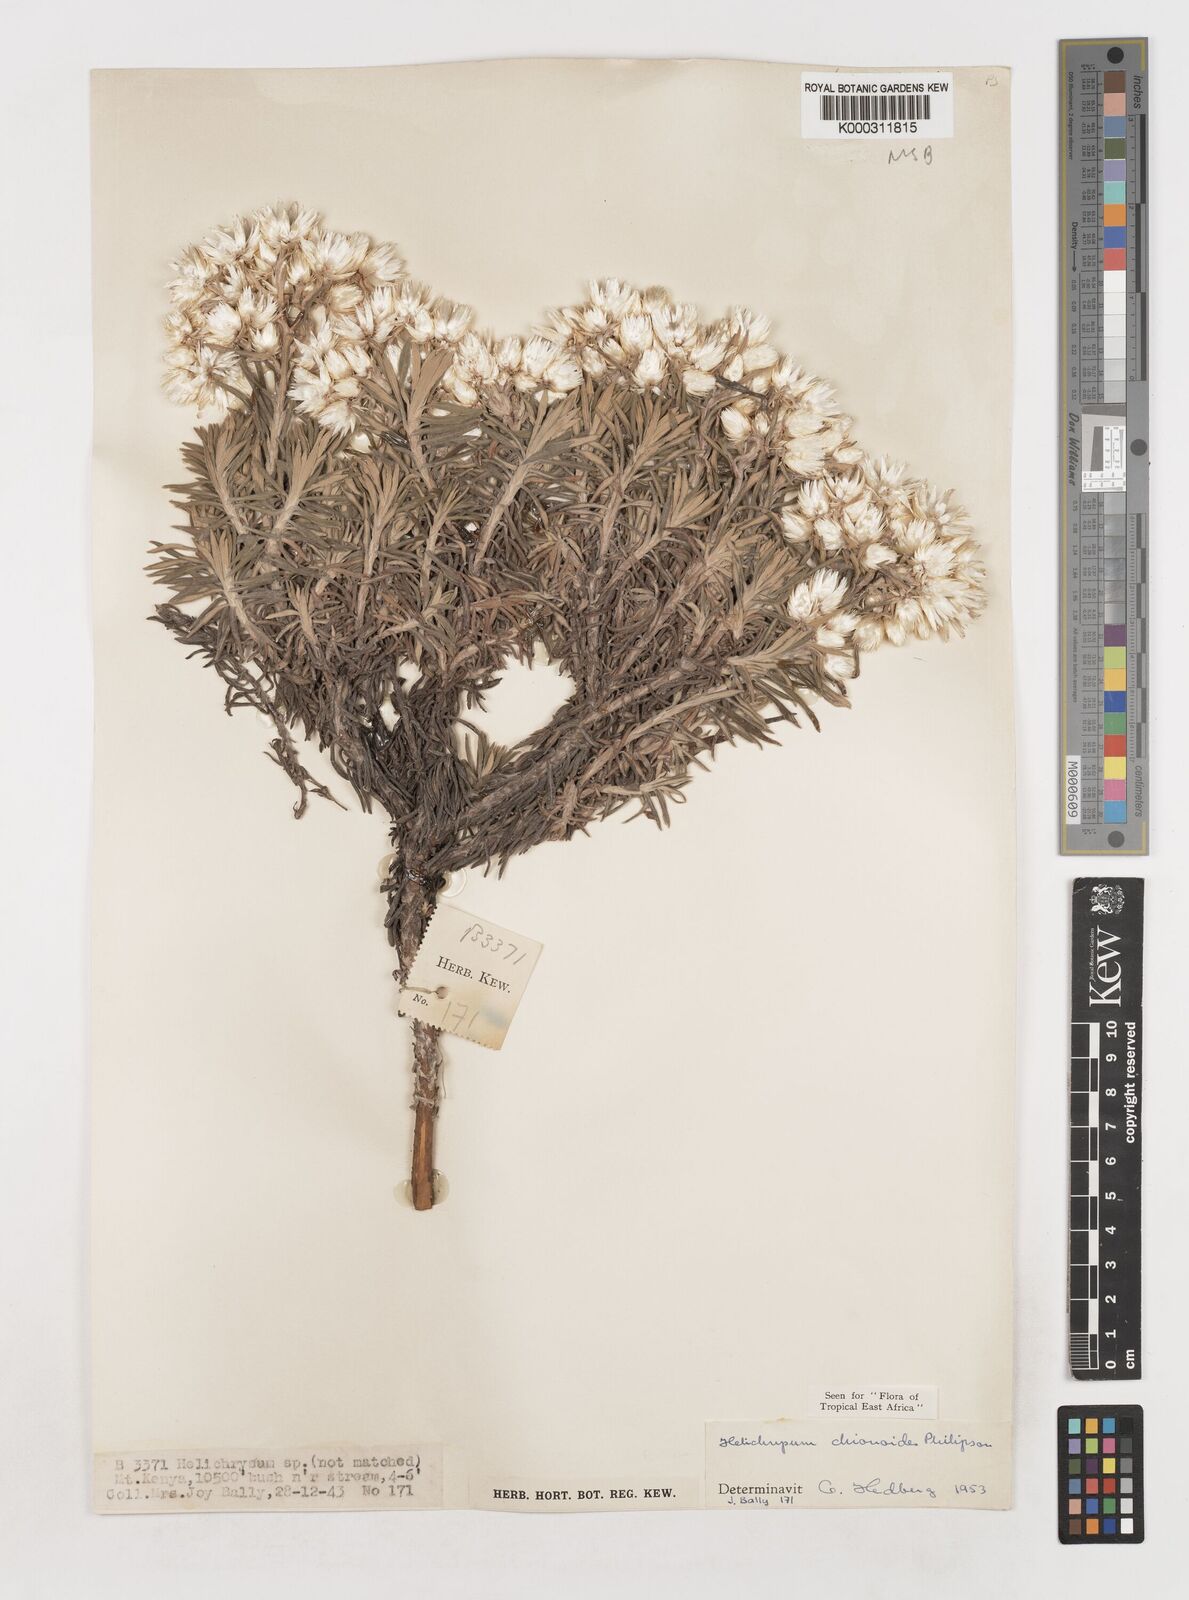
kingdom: Plantae
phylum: Tracheophyta
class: Magnoliopsida
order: Asterales
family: Asteraceae
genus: Helichrysum
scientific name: Helichrysum chionoides
